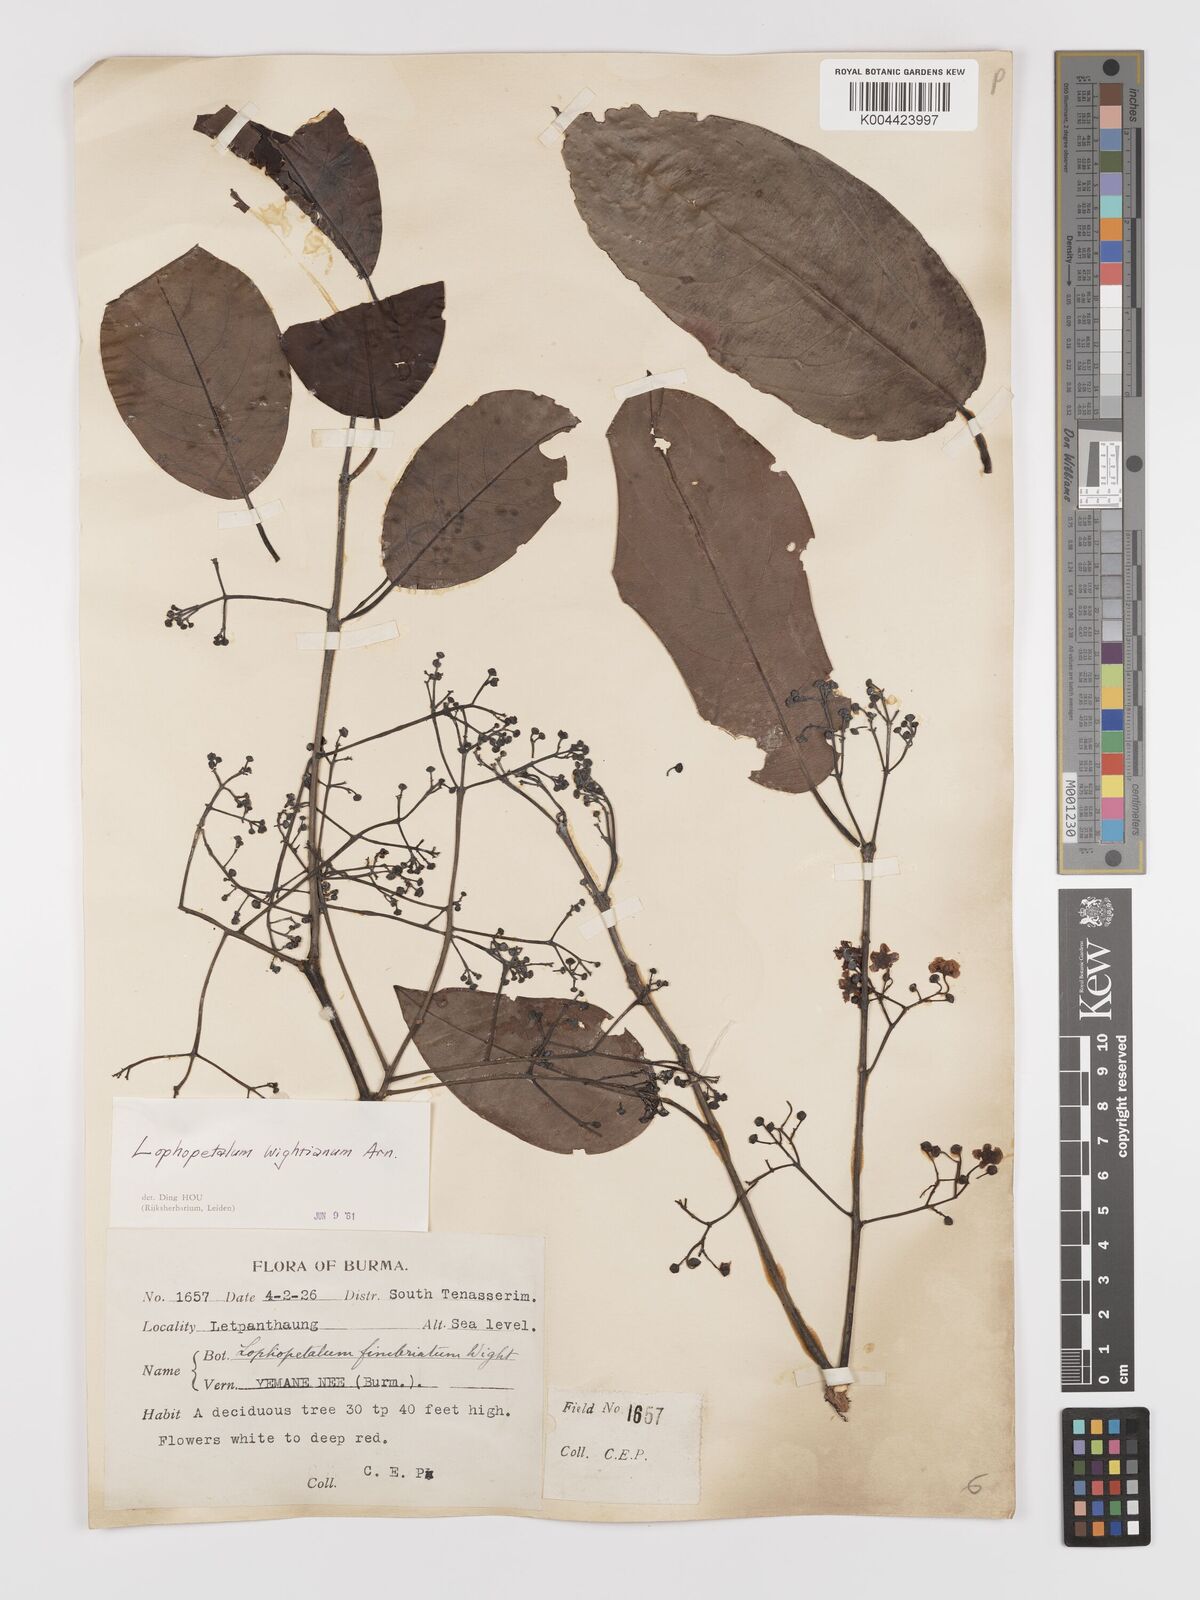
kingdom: Plantae
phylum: Tracheophyta
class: Magnoliopsida
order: Celastrales
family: Celastraceae
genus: Lophopetalum
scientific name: Lophopetalum wightianum
